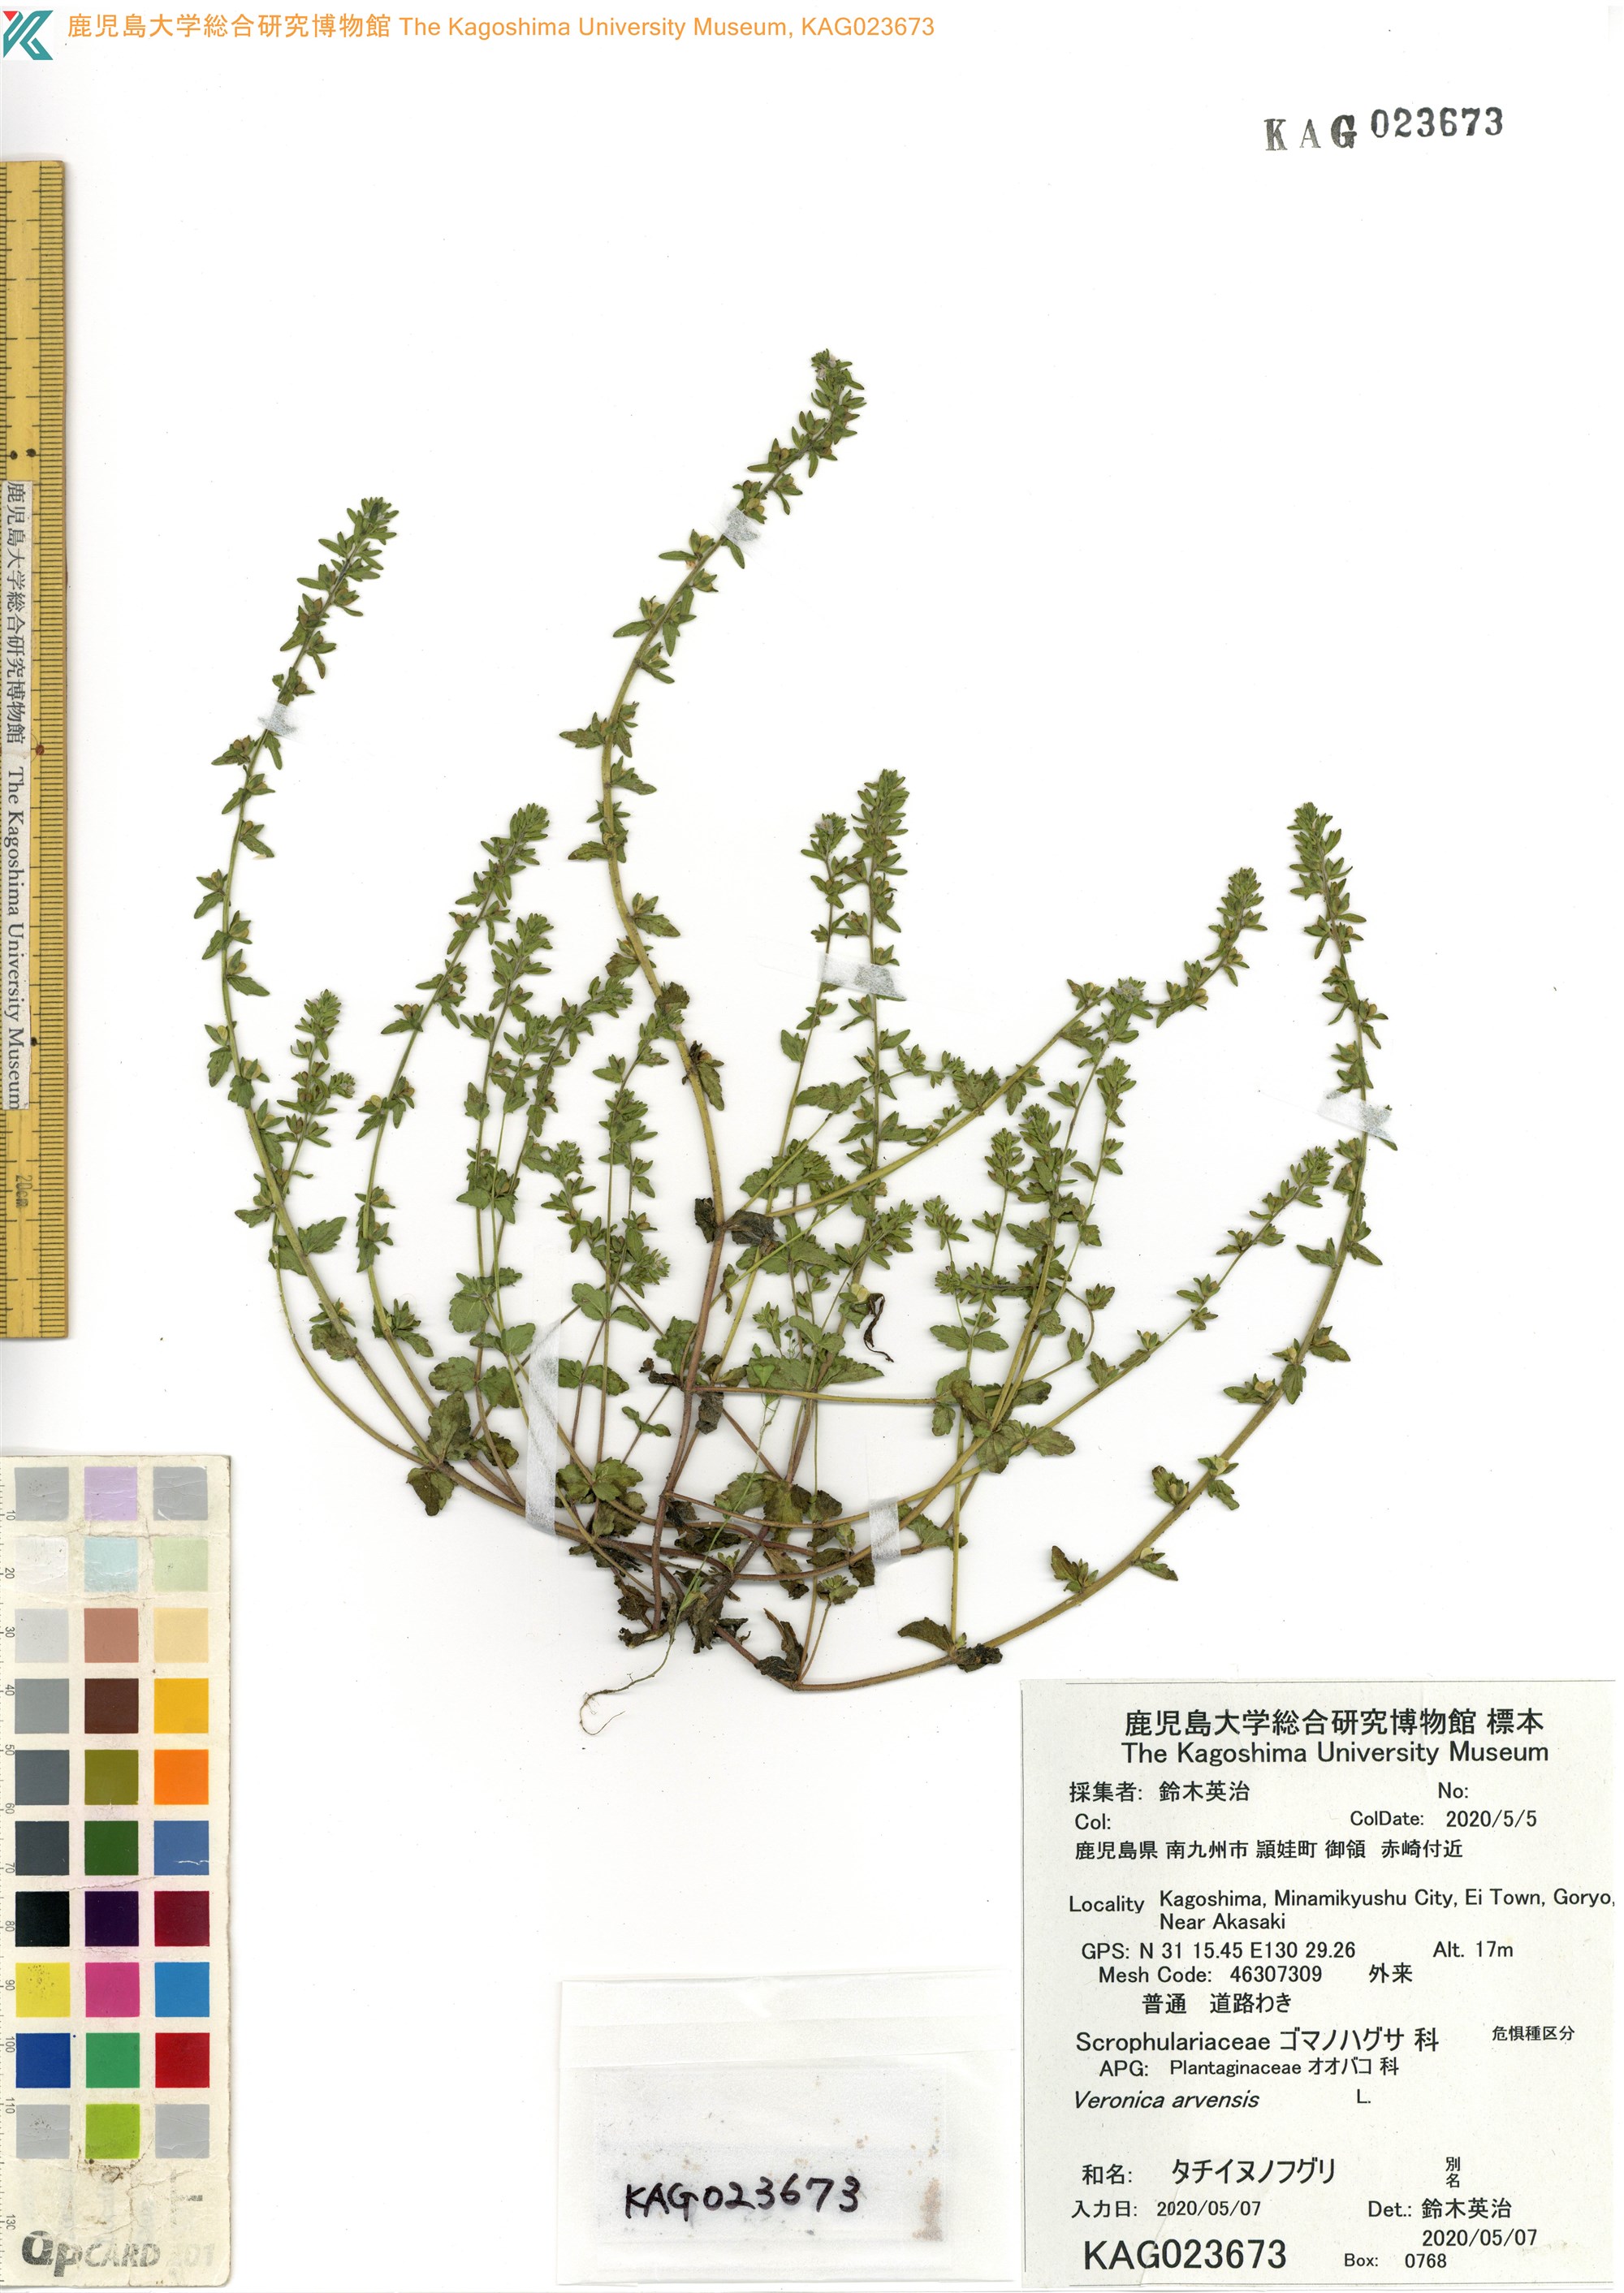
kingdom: Plantae
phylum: Tracheophyta
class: Magnoliopsida
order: Lamiales
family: Plantaginaceae
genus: Veronica
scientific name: Veronica arvensis
